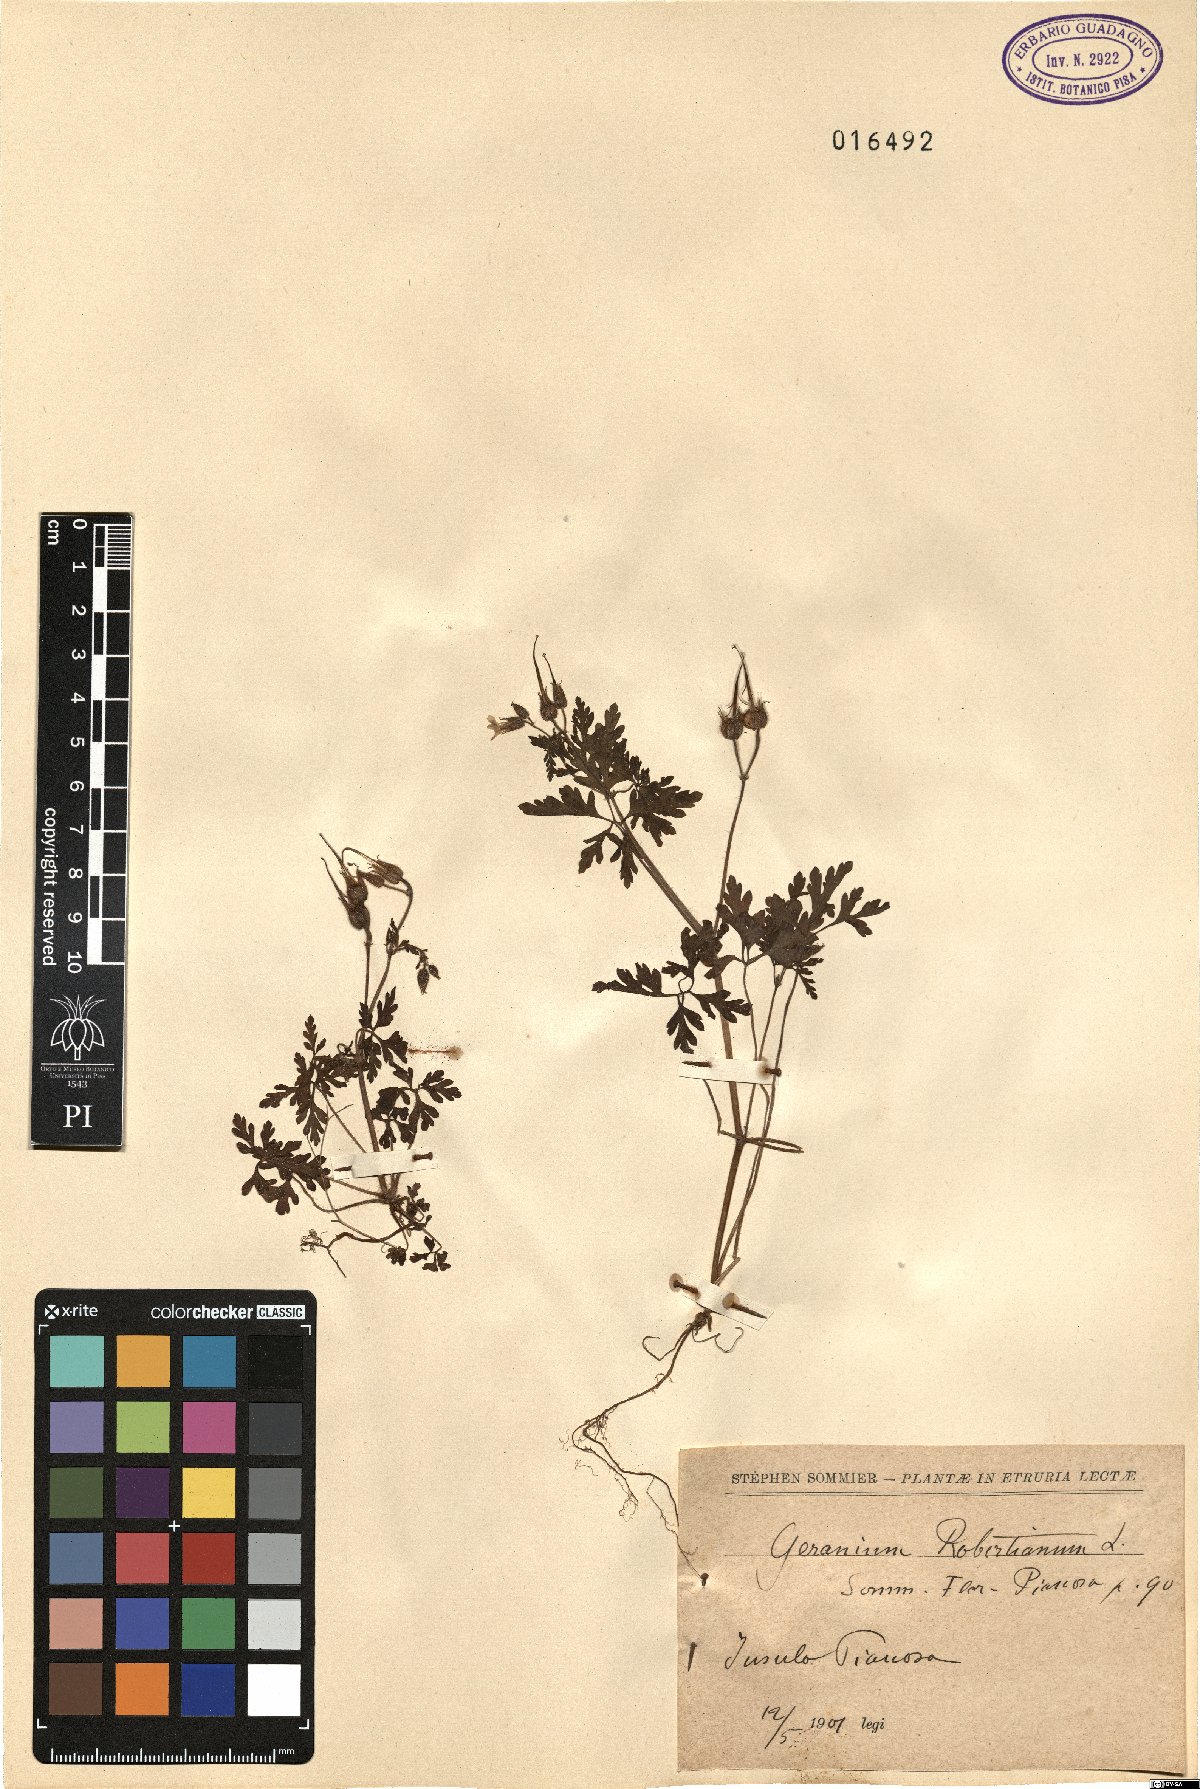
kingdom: Plantae
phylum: Tracheophyta
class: Magnoliopsida
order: Geraniales
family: Geraniaceae
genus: Geranium
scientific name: Geranium robertianum
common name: Herb-robert
